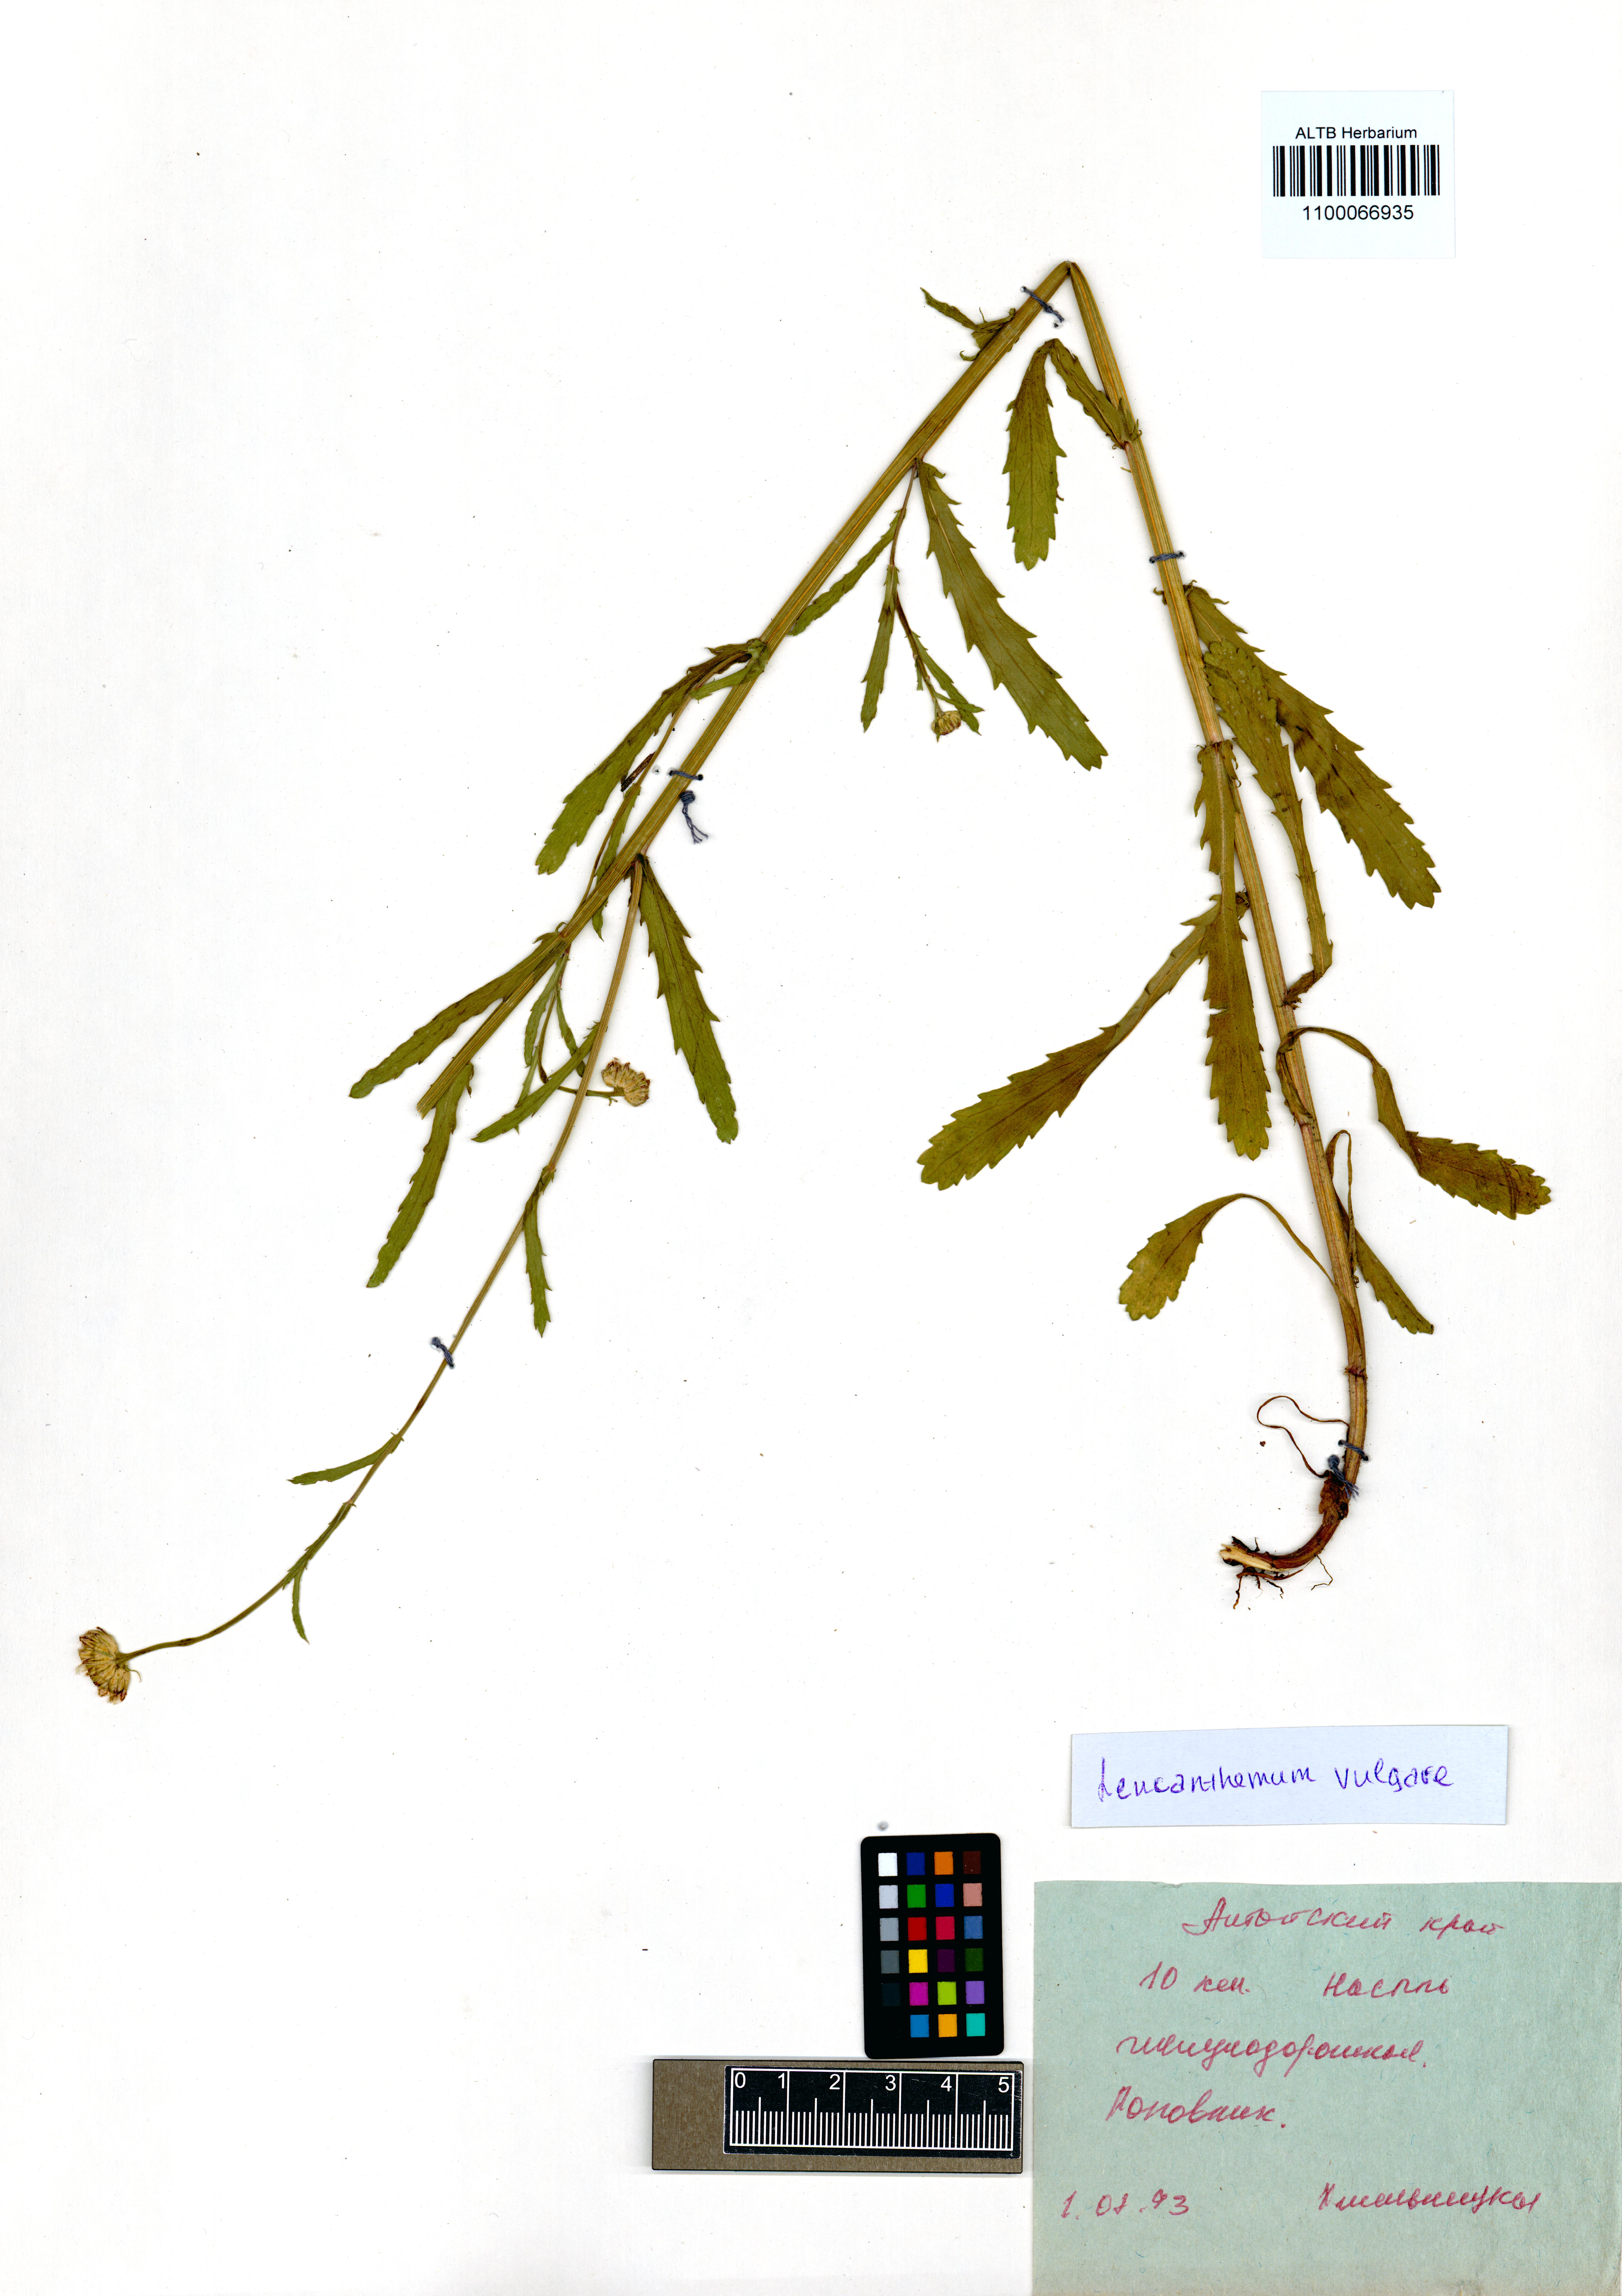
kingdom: Plantae
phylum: Tracheophyta
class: Magnoliopsida
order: Asterales
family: Asteraceae
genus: Leucanthemum
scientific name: Leucanthemum vulgare
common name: Oxeye daisy
